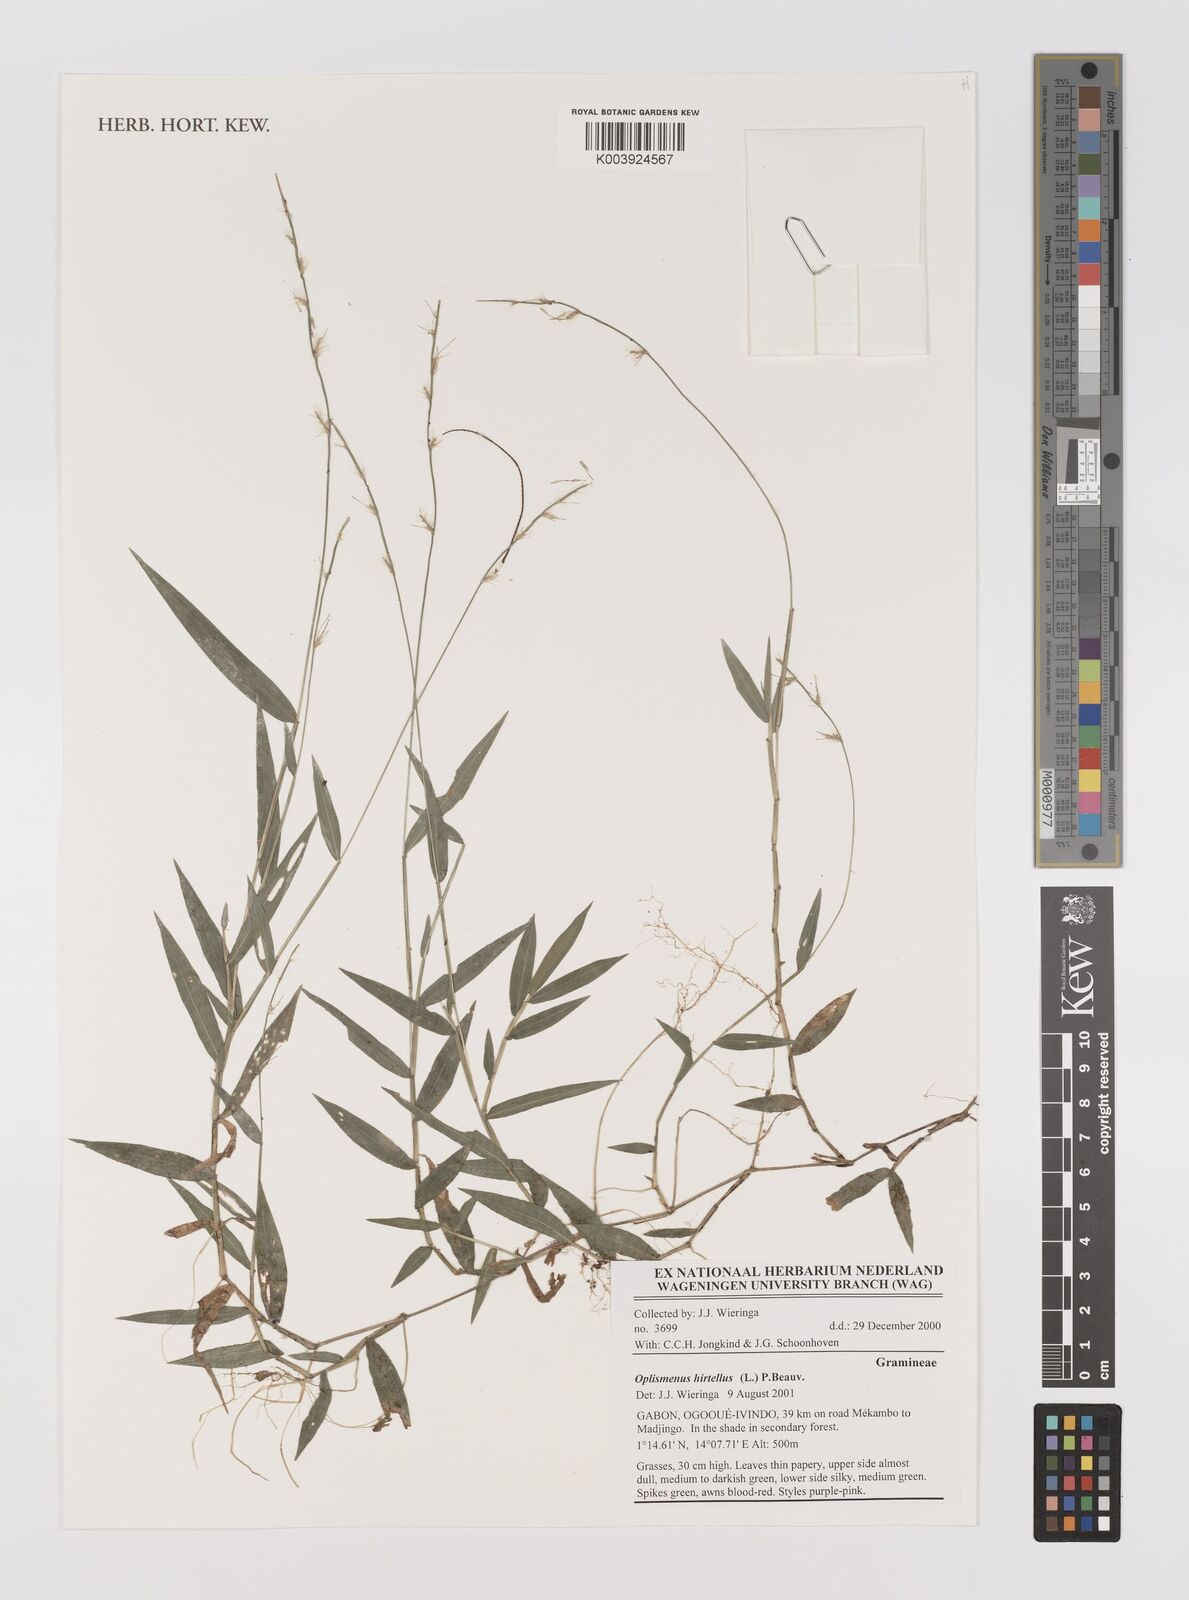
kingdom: Plantae
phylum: Tracheophyta
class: Liliopsida
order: Poales
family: Poaceae
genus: Oplismenus
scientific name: Oplismenus hirtellus
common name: Basketgrass
